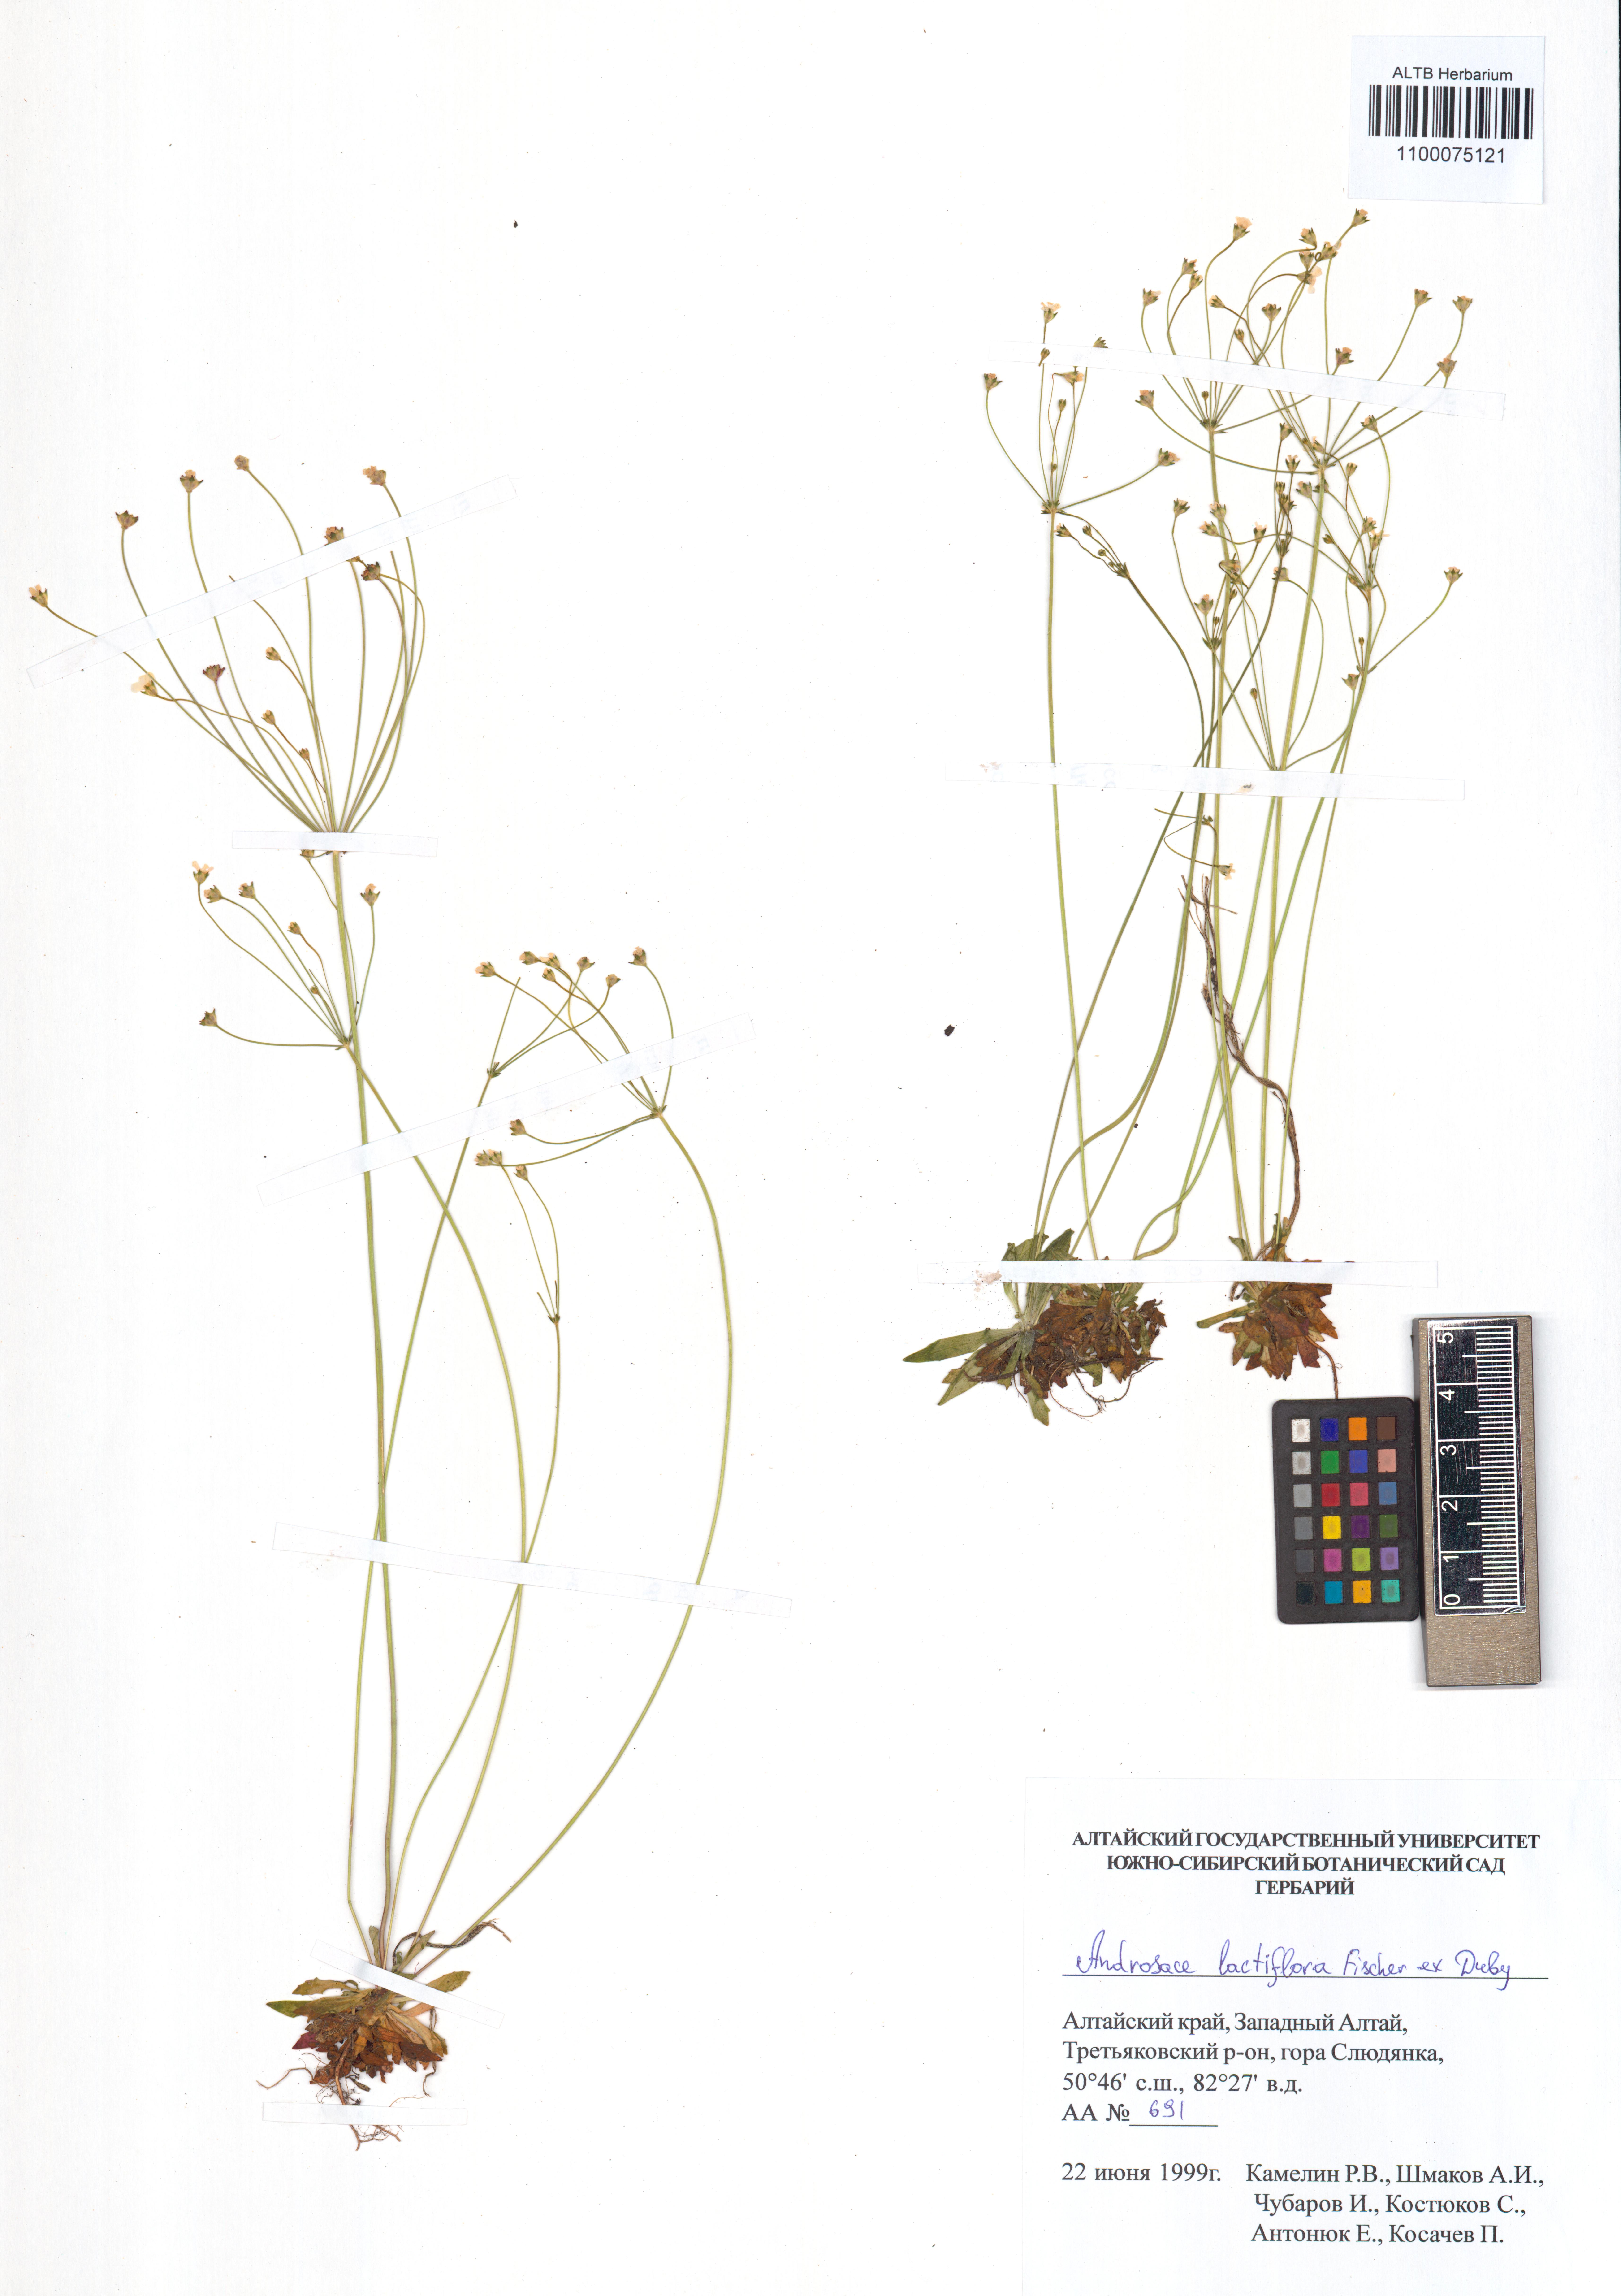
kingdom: Plantae
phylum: Tracheophyta
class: Magnoliopsida
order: Ericales
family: Primulaceae
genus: Androsace
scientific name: Androsace lactiflora
